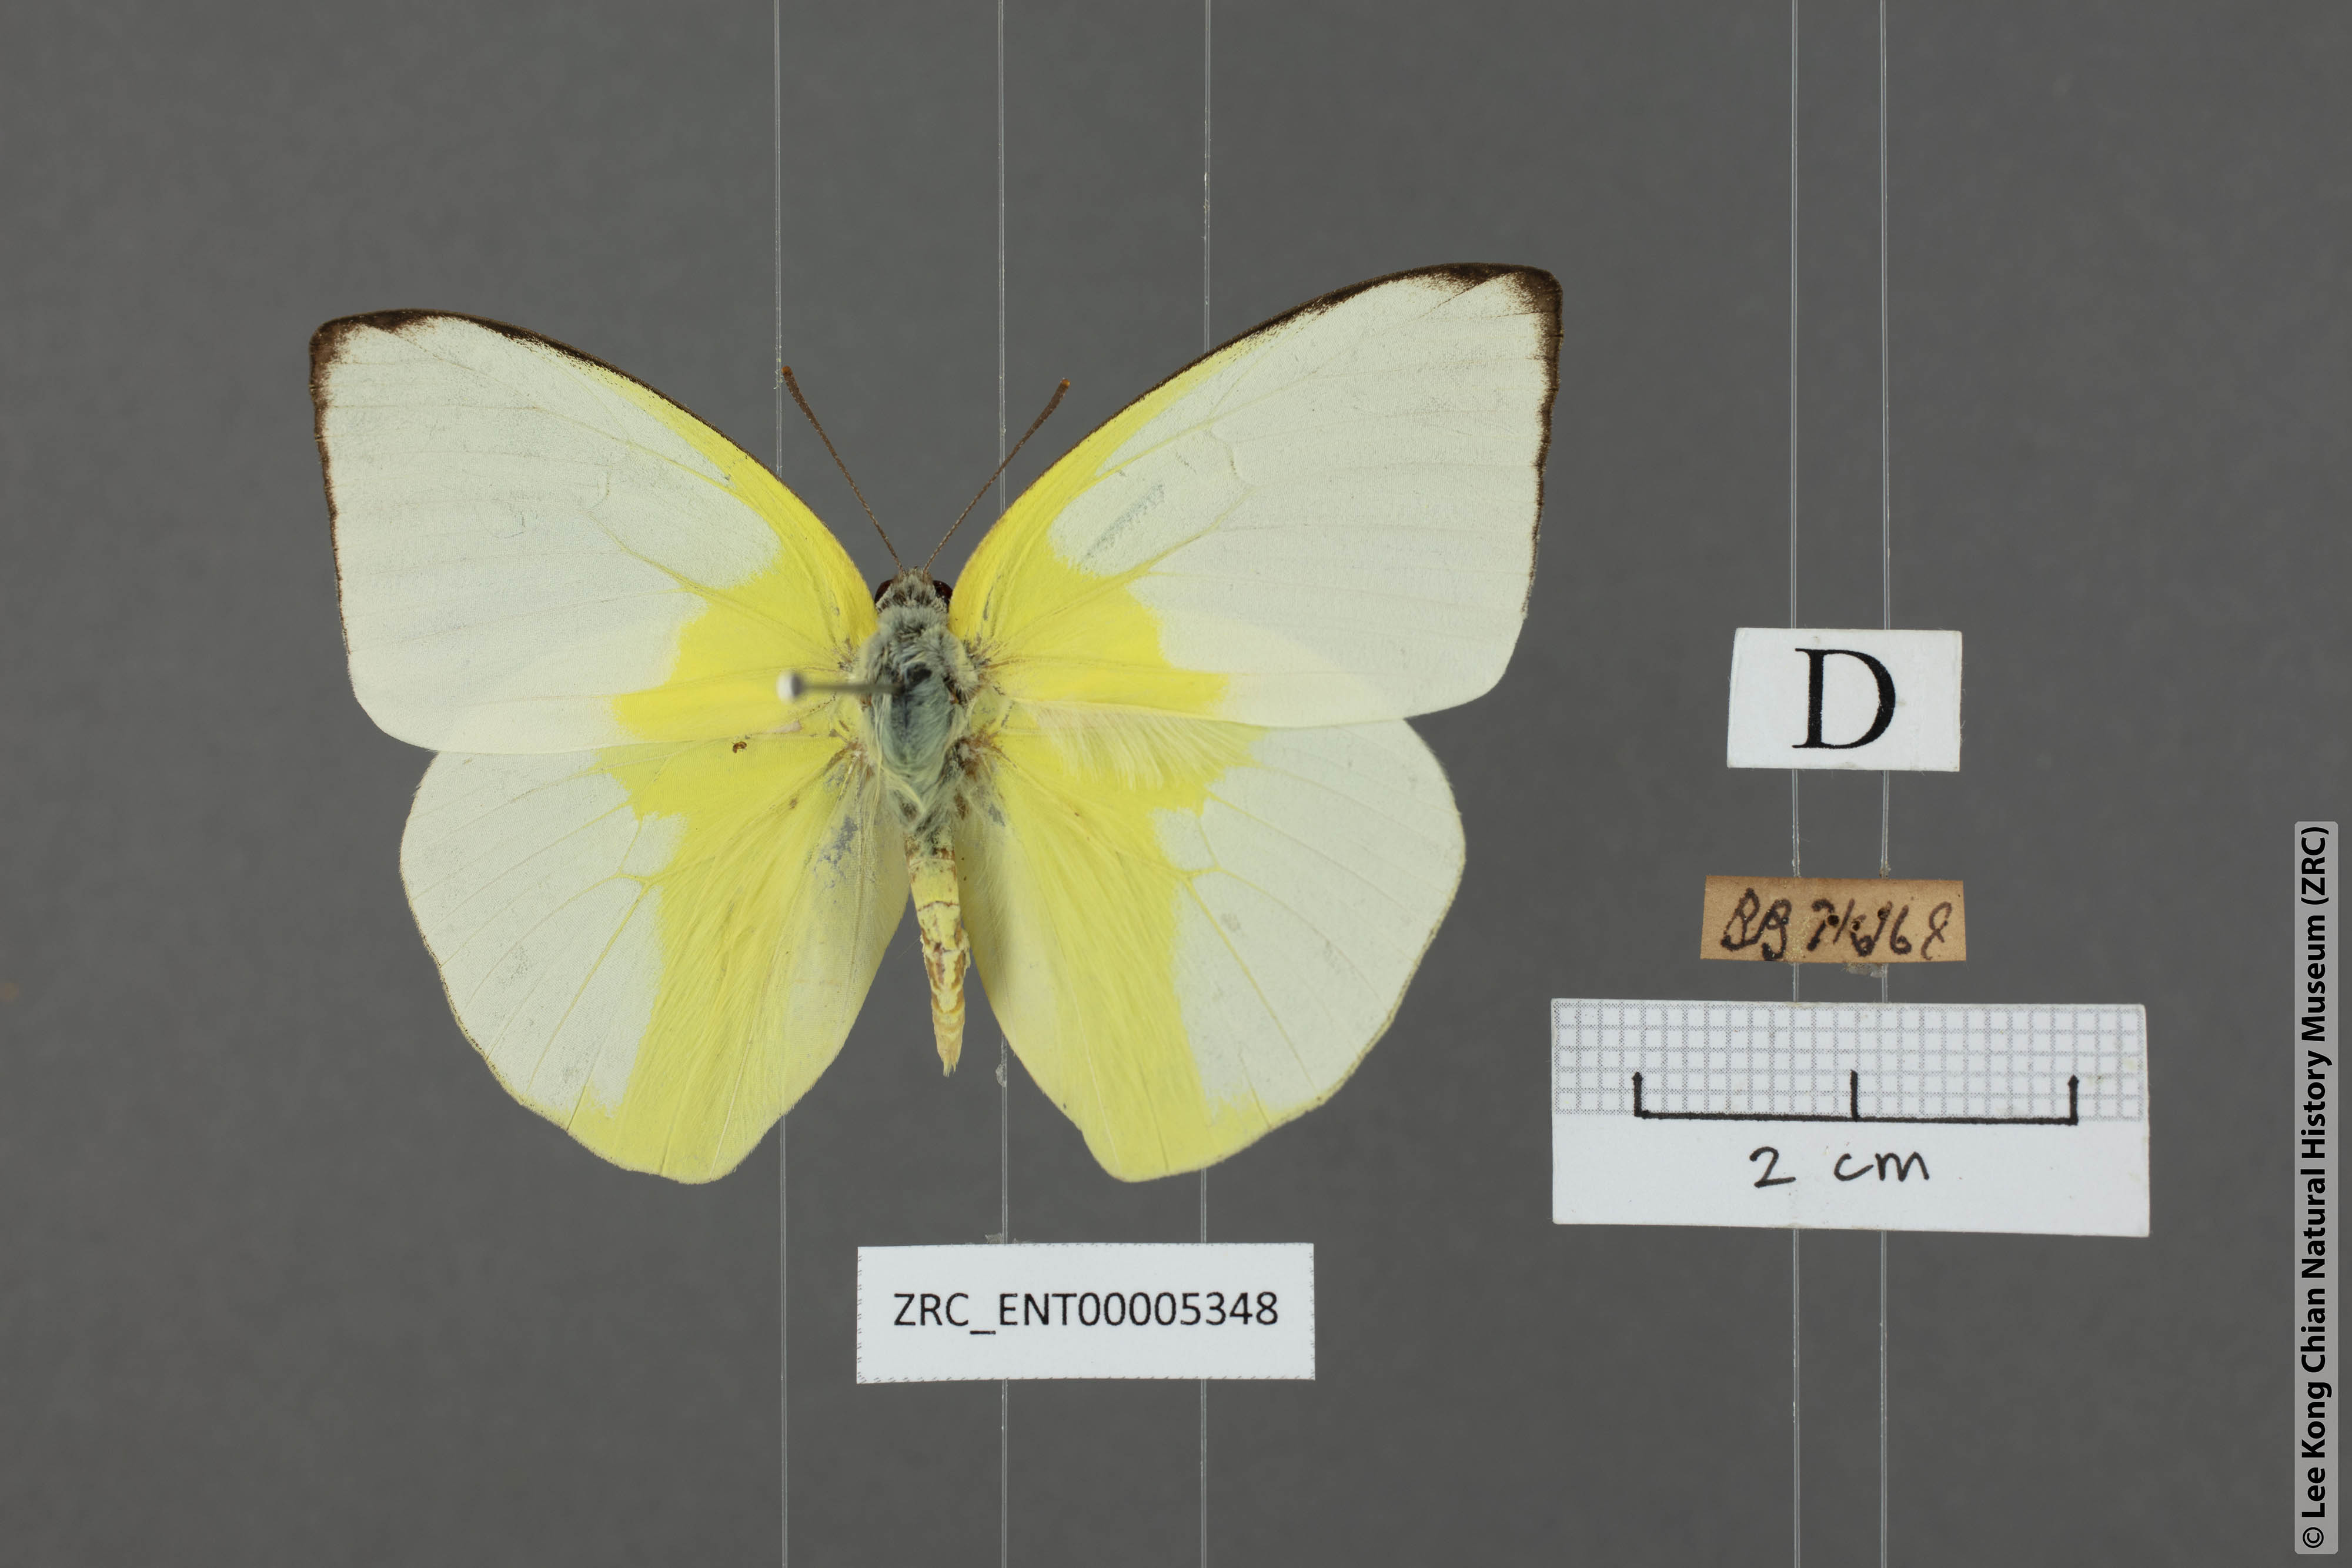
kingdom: Animalia
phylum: Arthropoda
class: Insecta
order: Lepidoptera
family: Pieridae
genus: Catopsilia
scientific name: Catopsilia pomona
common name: Common emigrant
